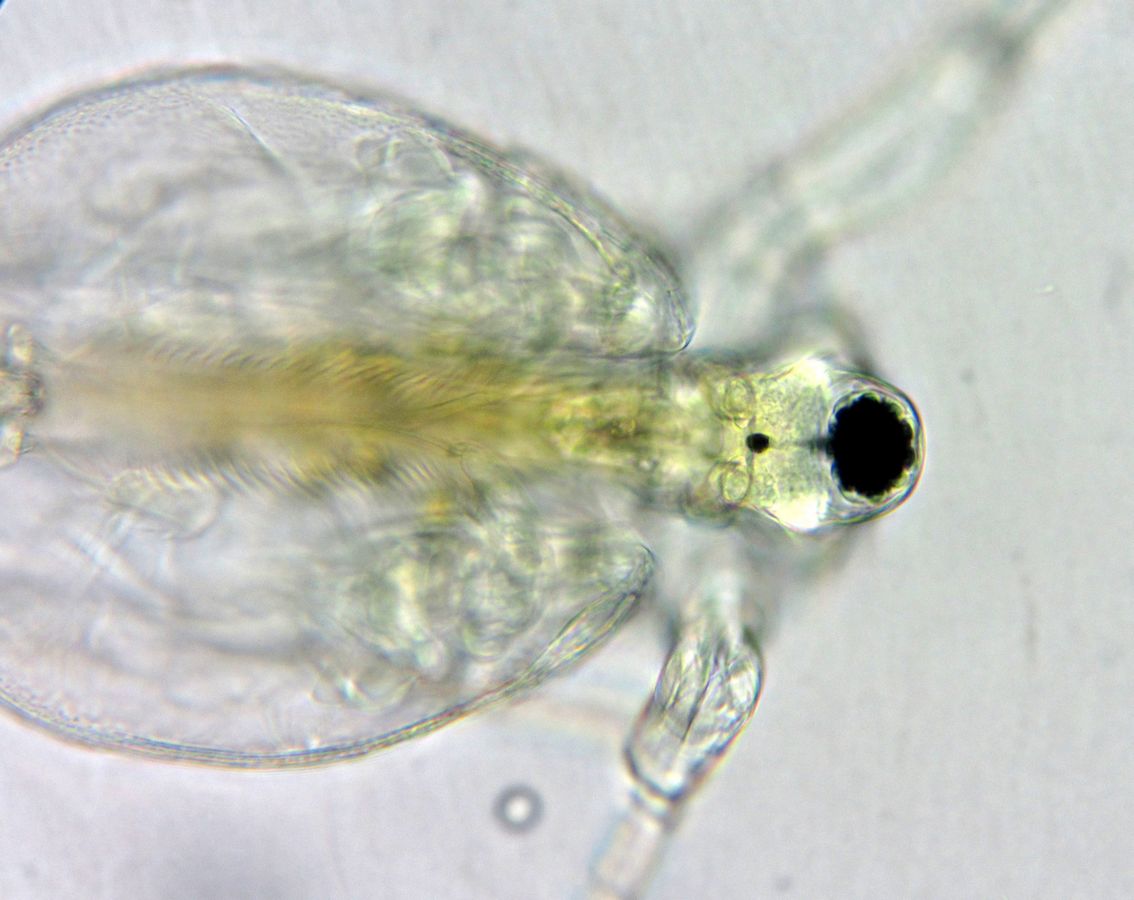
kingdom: Animalia
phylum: Arthropoda
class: Branchiopoda
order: Diplostraca
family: Daphniidae
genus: Ceriodaphnia
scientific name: Ceriodaphnia pulchella
